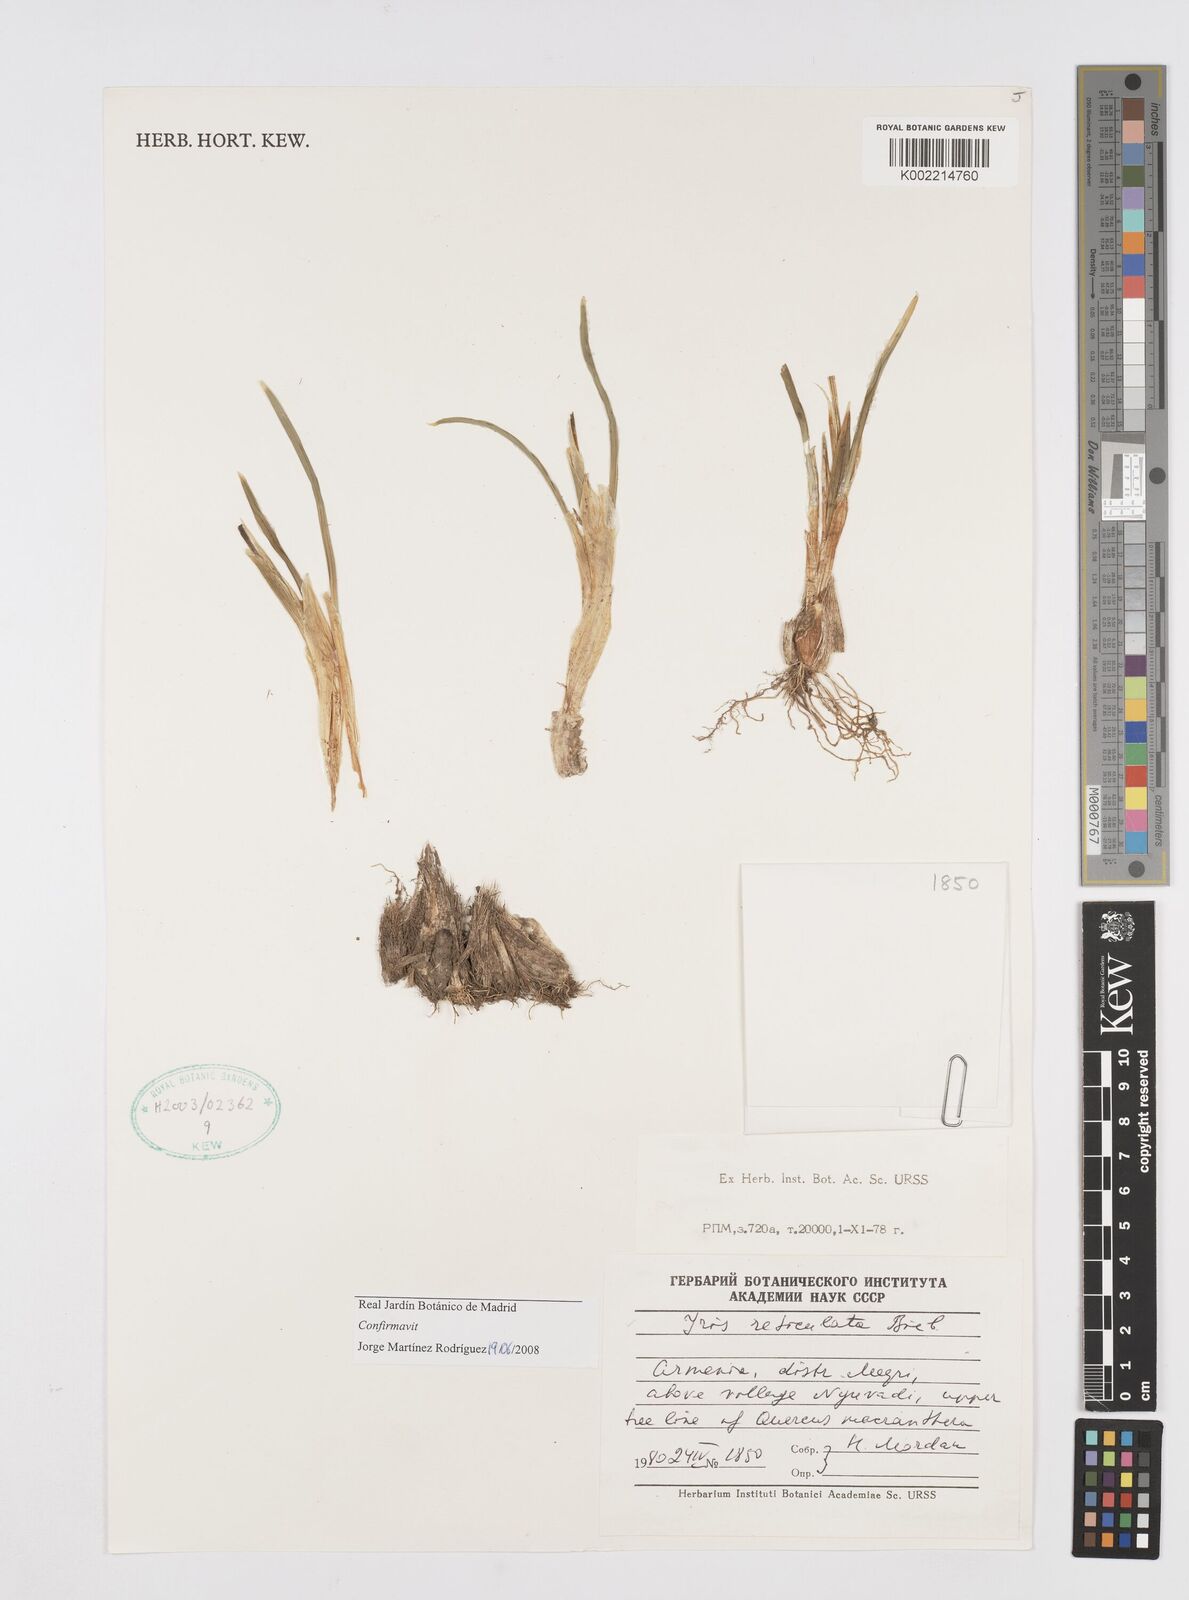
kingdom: Plantae
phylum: Tracheophyta
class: Liliopsida
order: Asparagales
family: Iridaceae
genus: Iris
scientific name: Iris reticulata
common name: Netted iris
